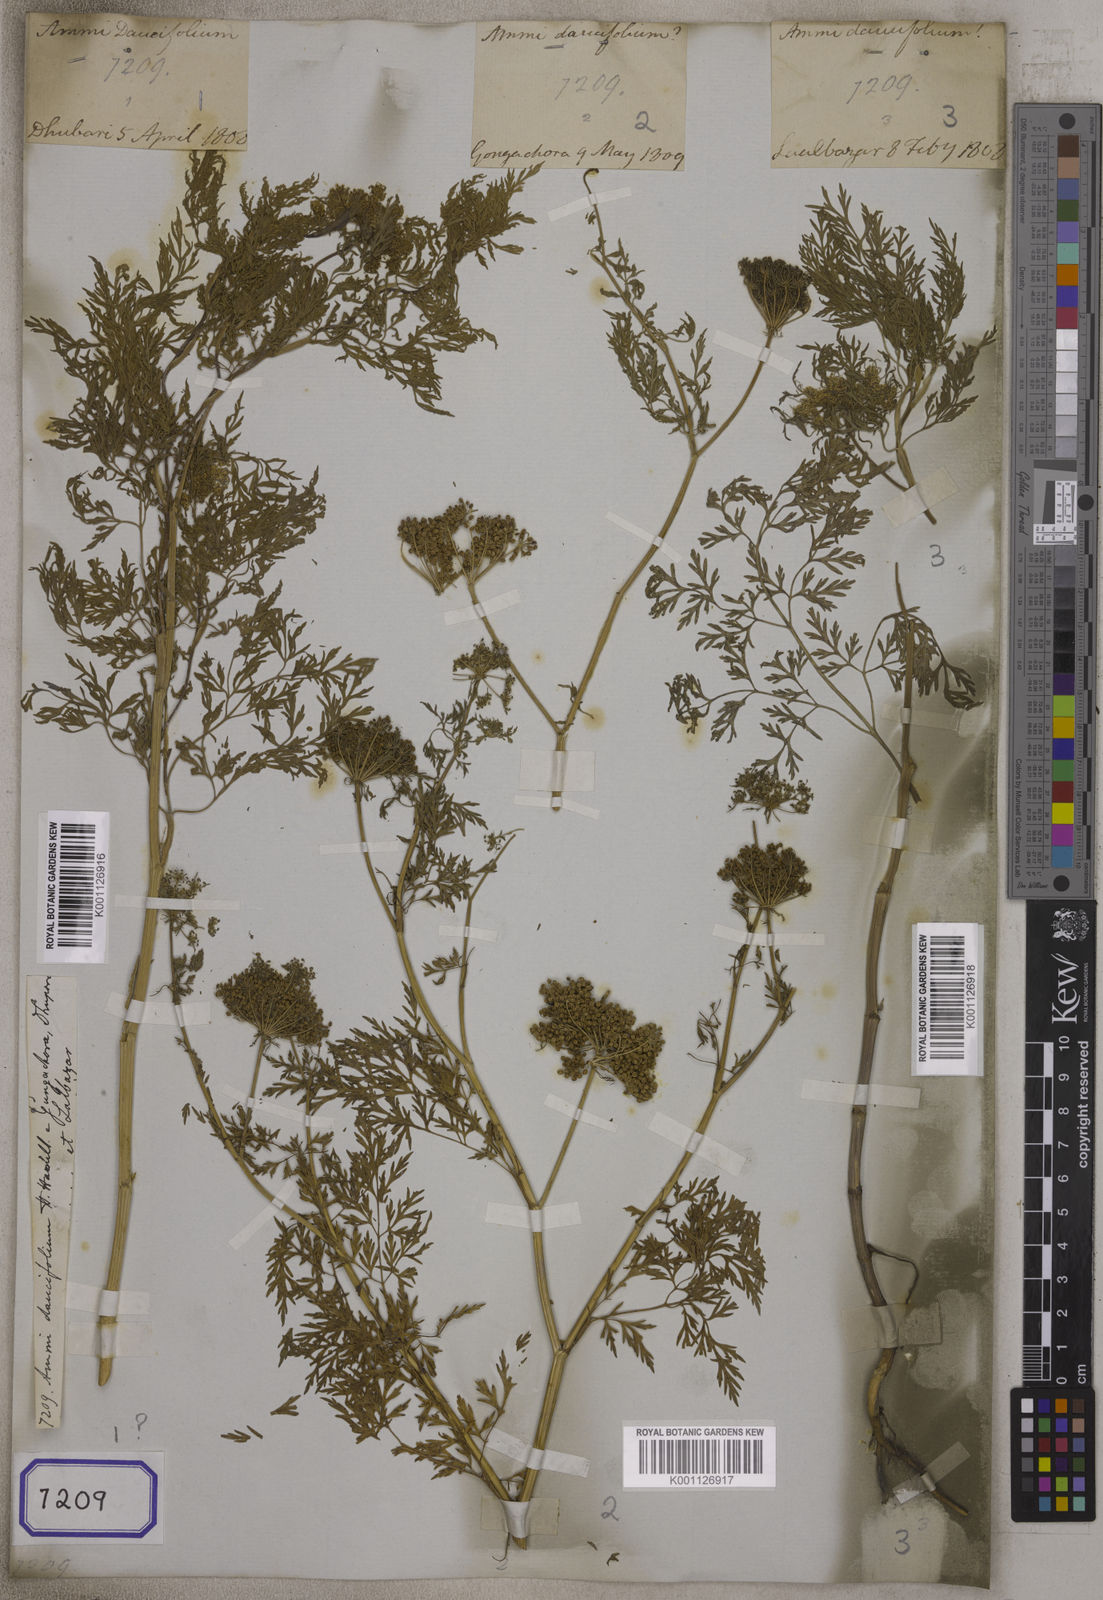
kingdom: Plantae
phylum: Tracheophyta
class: Magnoliopsida
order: Apiales
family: Apiaceae
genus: Ammi
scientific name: Ammi
